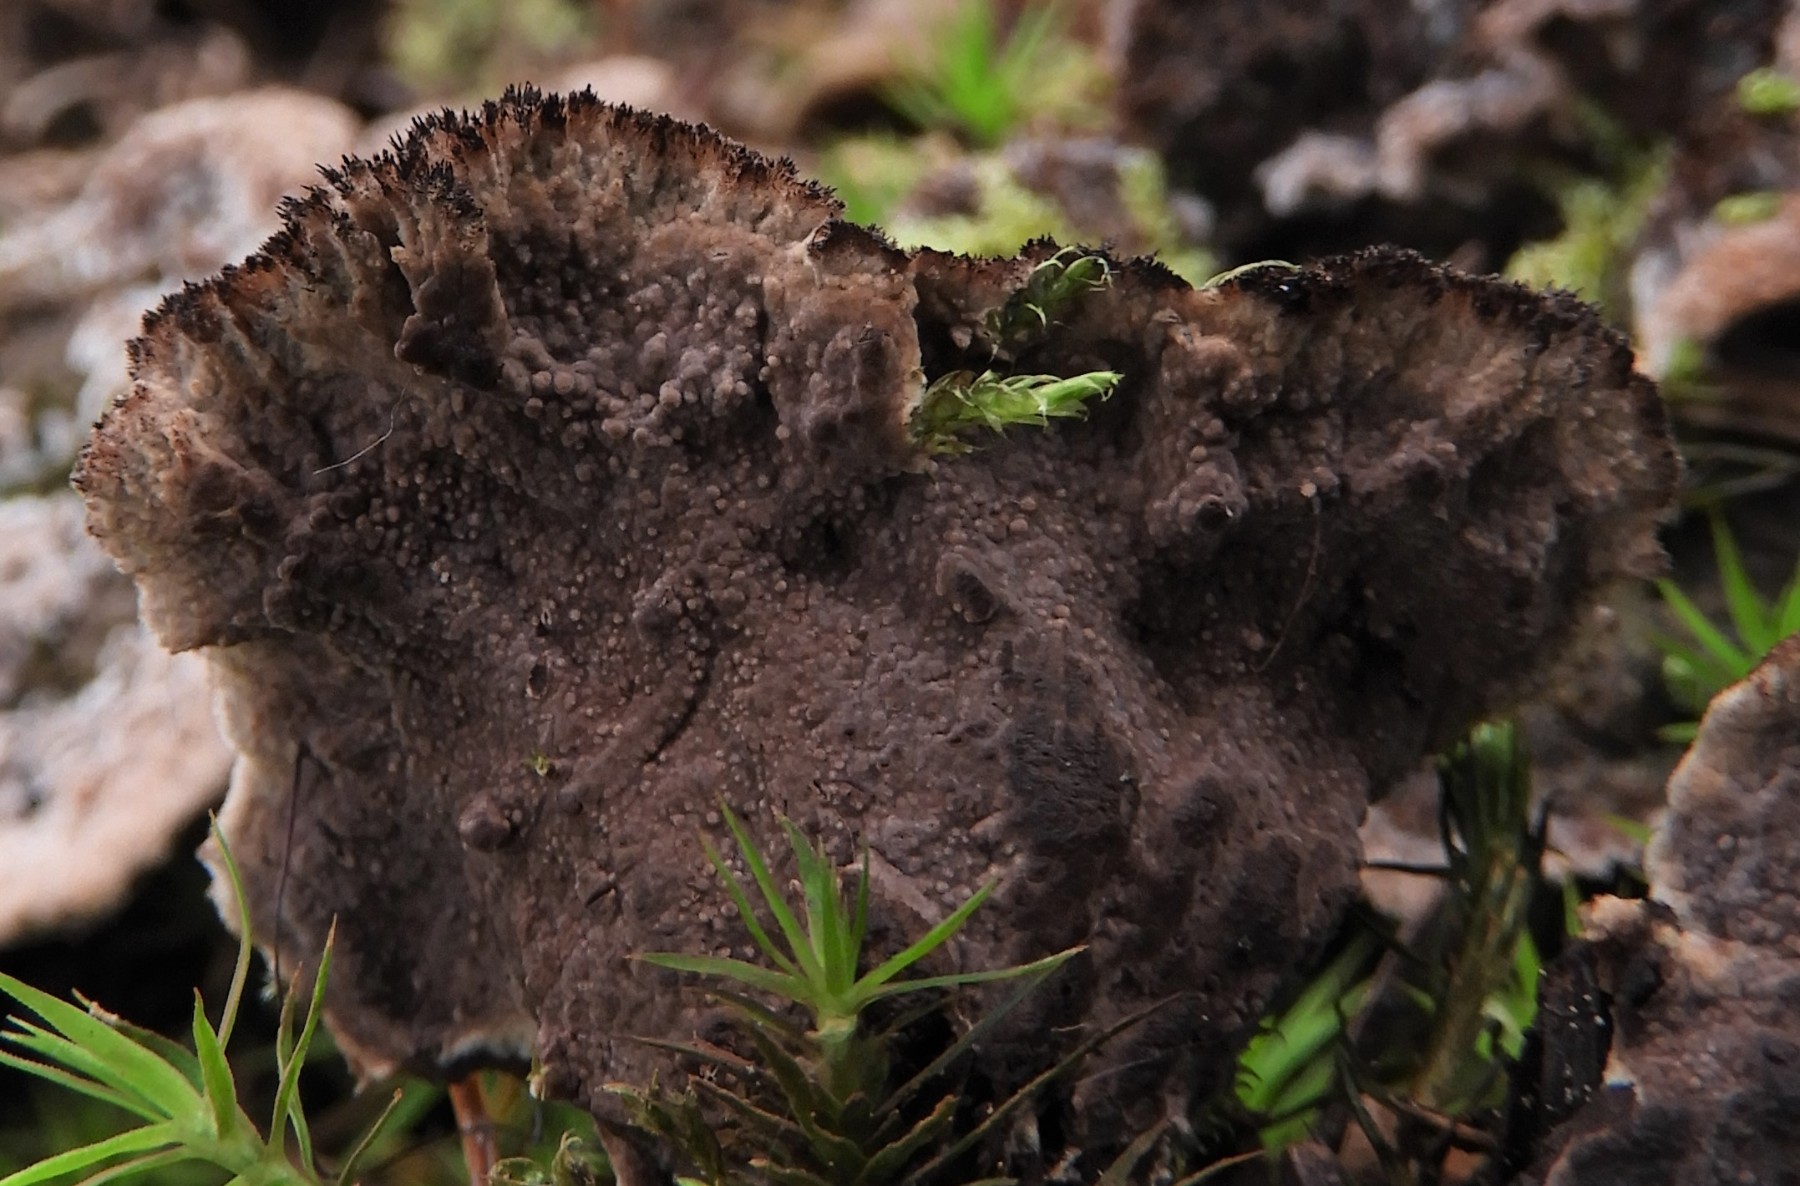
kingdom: Fungi
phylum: Basidiomycota
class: Agaricomycetes
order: Thelephorales
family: Thelephoraceae
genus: Thelephora
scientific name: Thelephora terrestris
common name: fliget frynsesvamp
